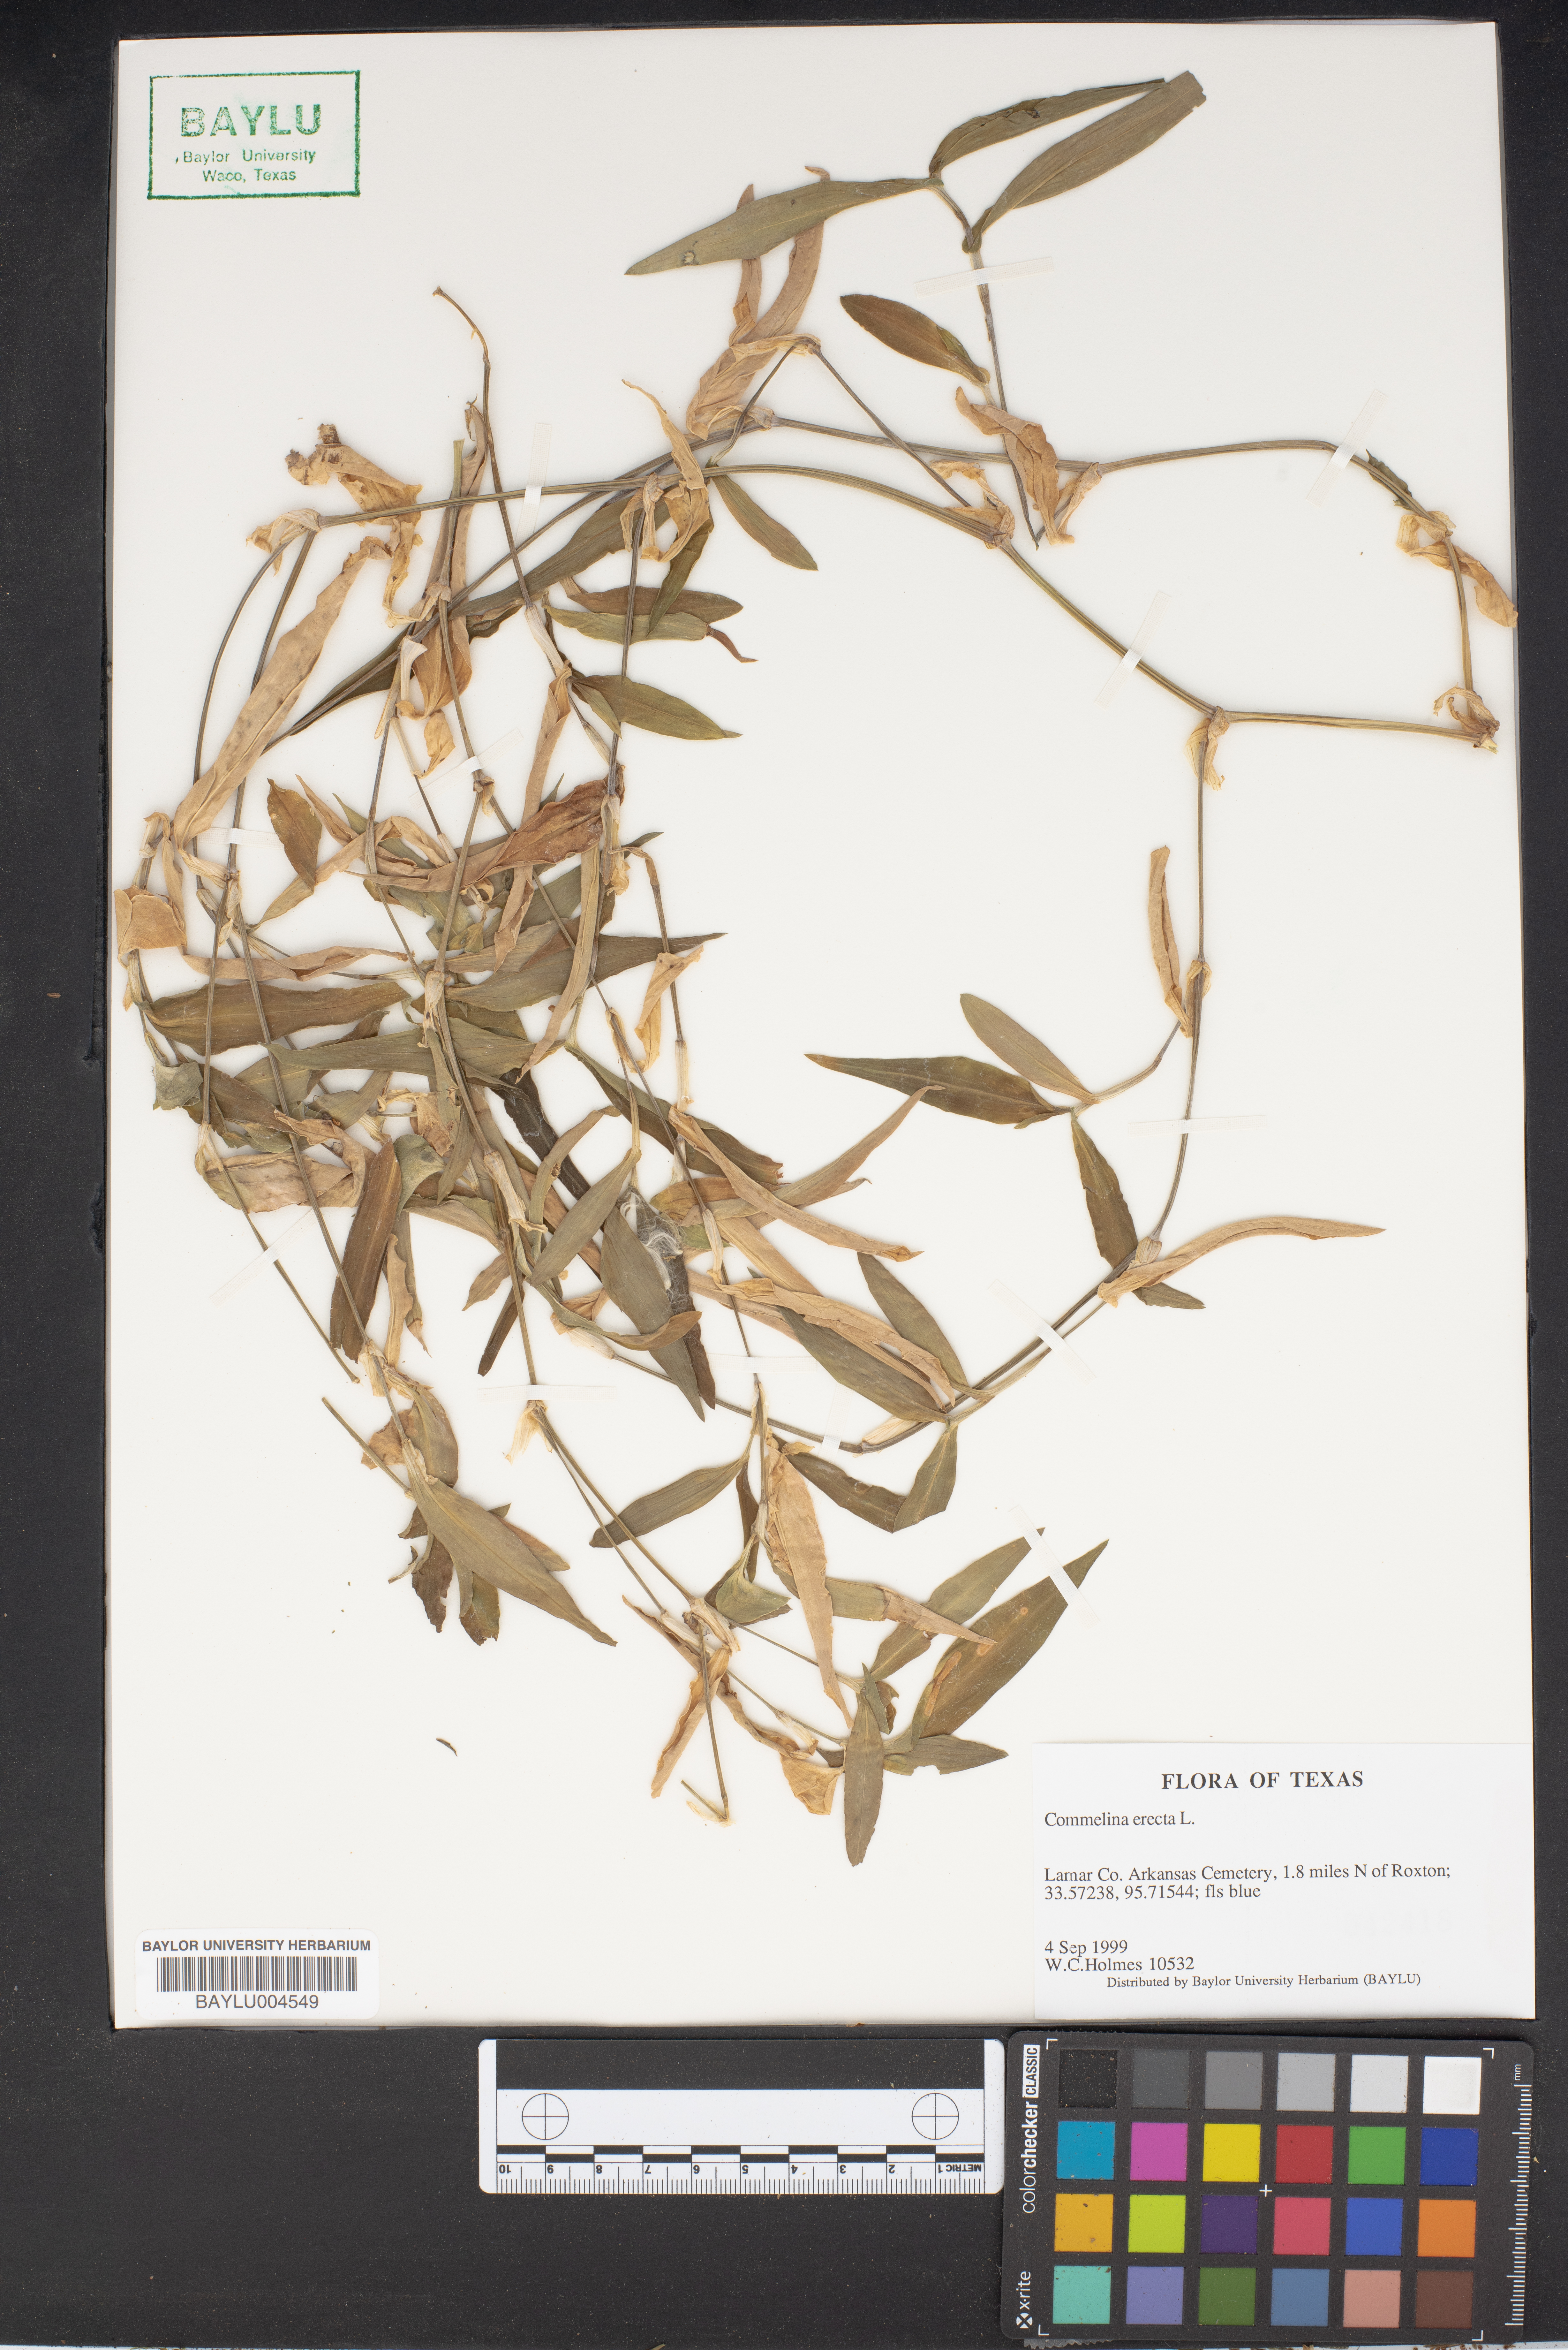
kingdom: Plantae
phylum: Tracheophyta
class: Liliopsida
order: Commelinales
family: Commelinaceae
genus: Commelina
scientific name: Commelina erecta
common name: Blousel blommetjie
